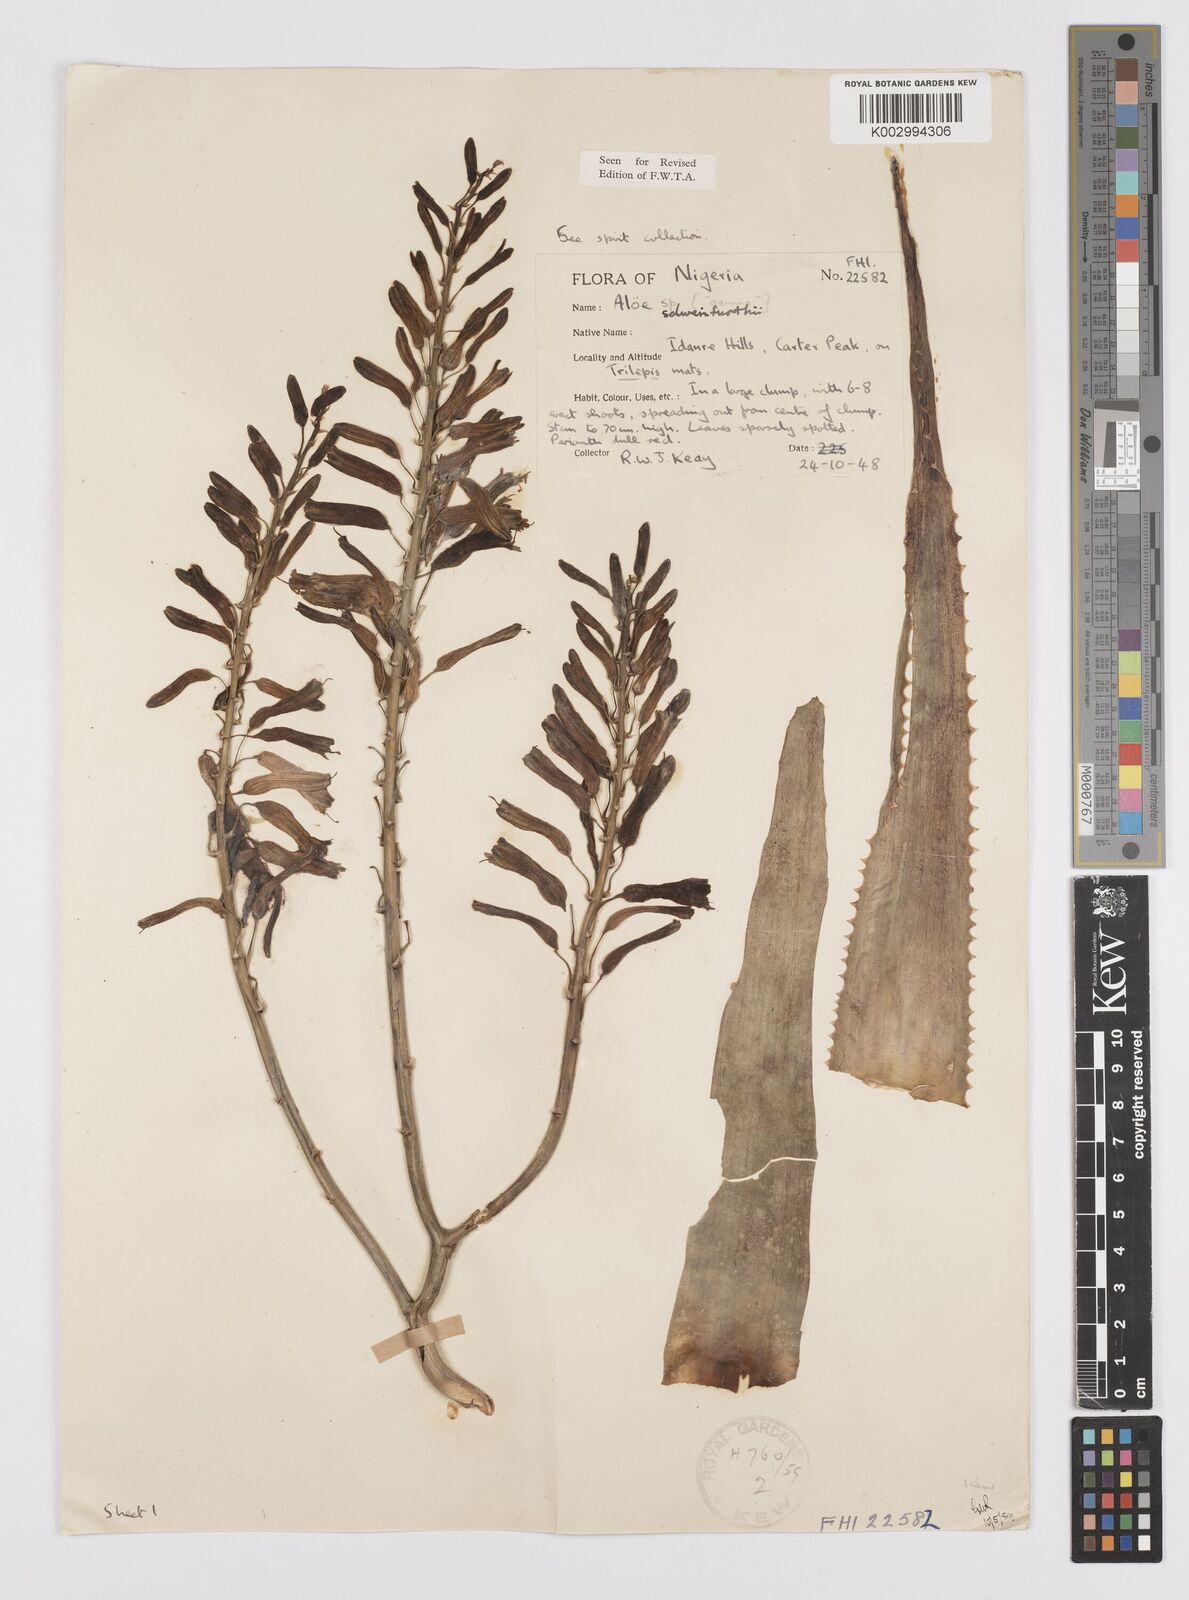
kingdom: Plantae
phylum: Tracheophyta
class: Liliopsida
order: Asparagales
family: Asphodelaceae
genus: Aloe
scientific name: Aloe schweinfurthii
